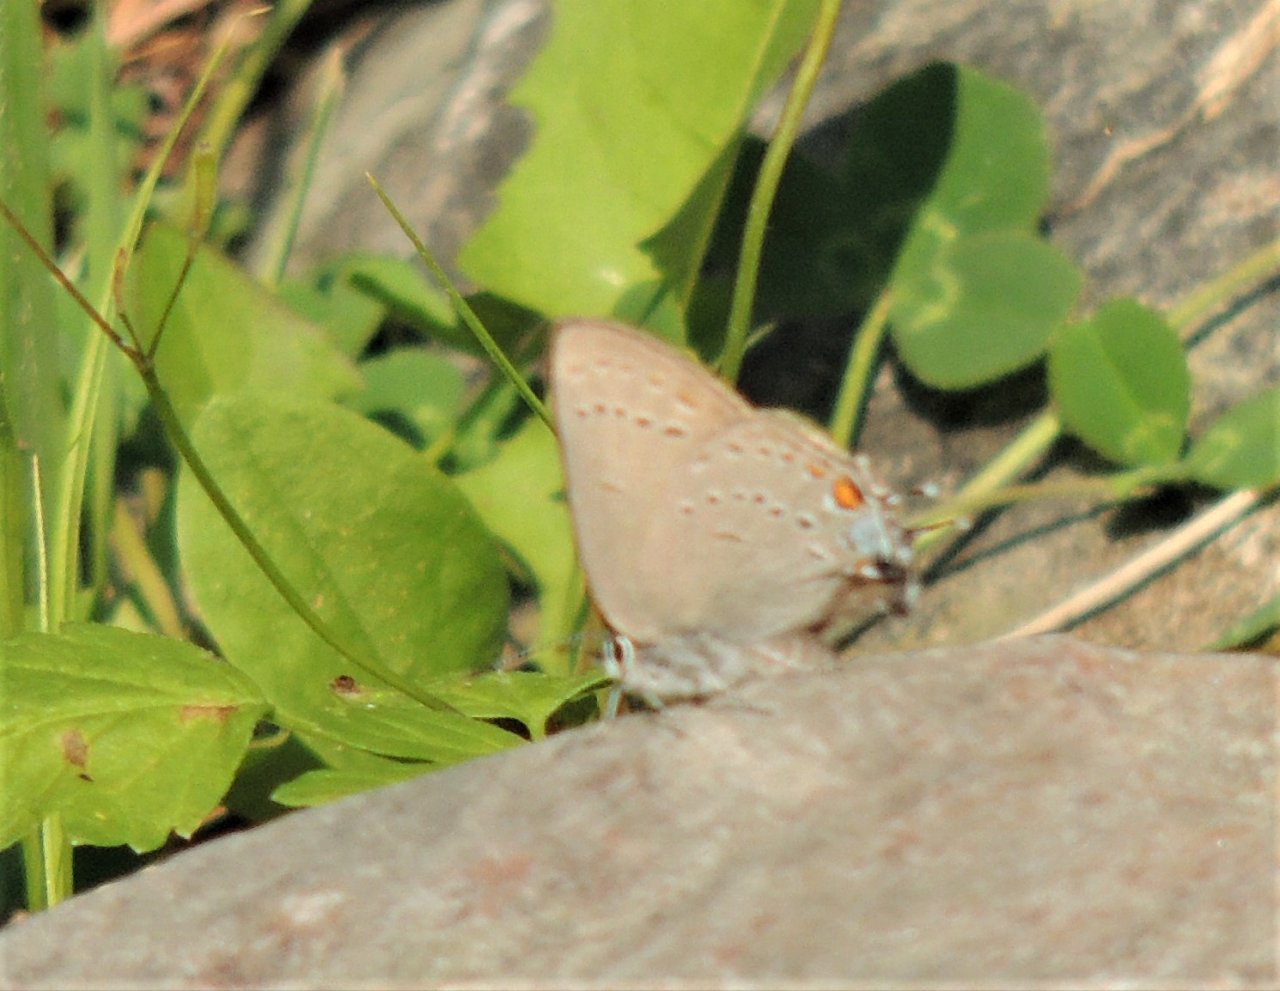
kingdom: Animalia
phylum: Arthropoda
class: Insecta
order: Lepidoptera
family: Lycaenidae
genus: Strymon
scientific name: Strymon sylvinus
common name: Sylvan Hairstreak
